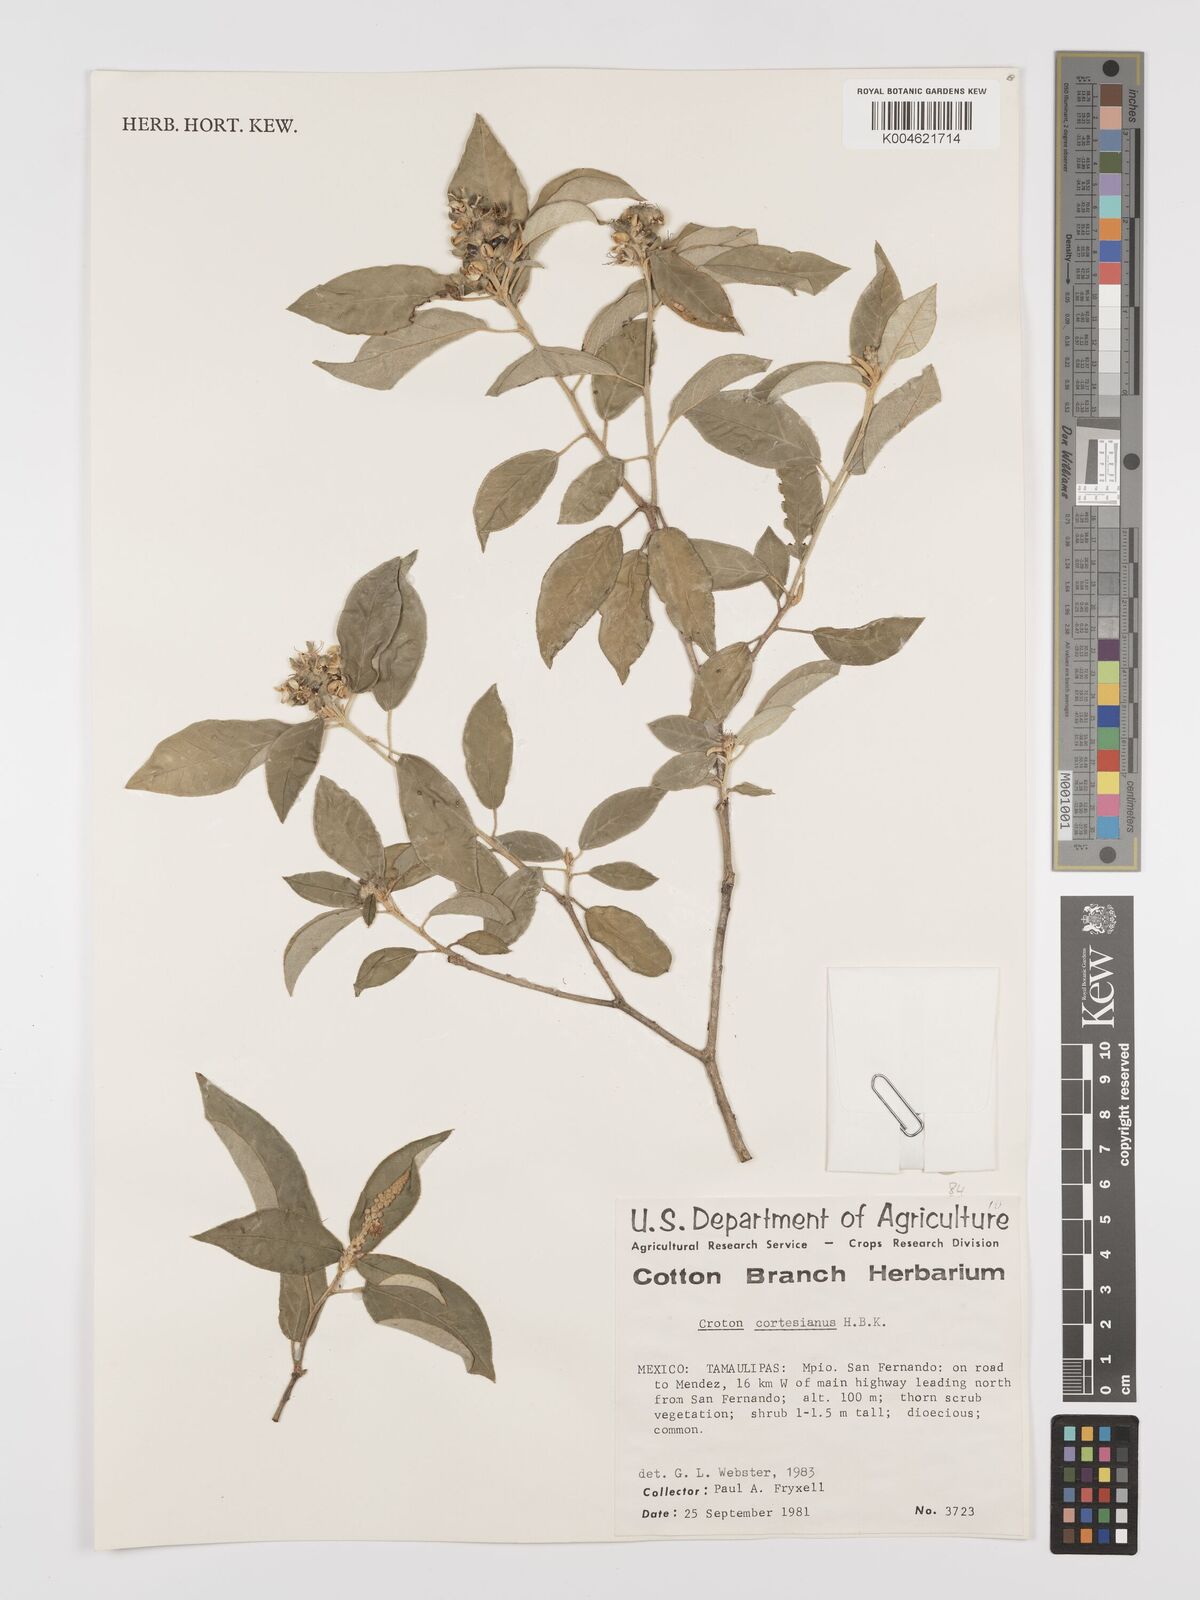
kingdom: Plantae
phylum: Tracheophyta
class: Magnoliopsida
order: Malpighiales
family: Euphorbiaceae
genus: Croton
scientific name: Croton cortesianus
